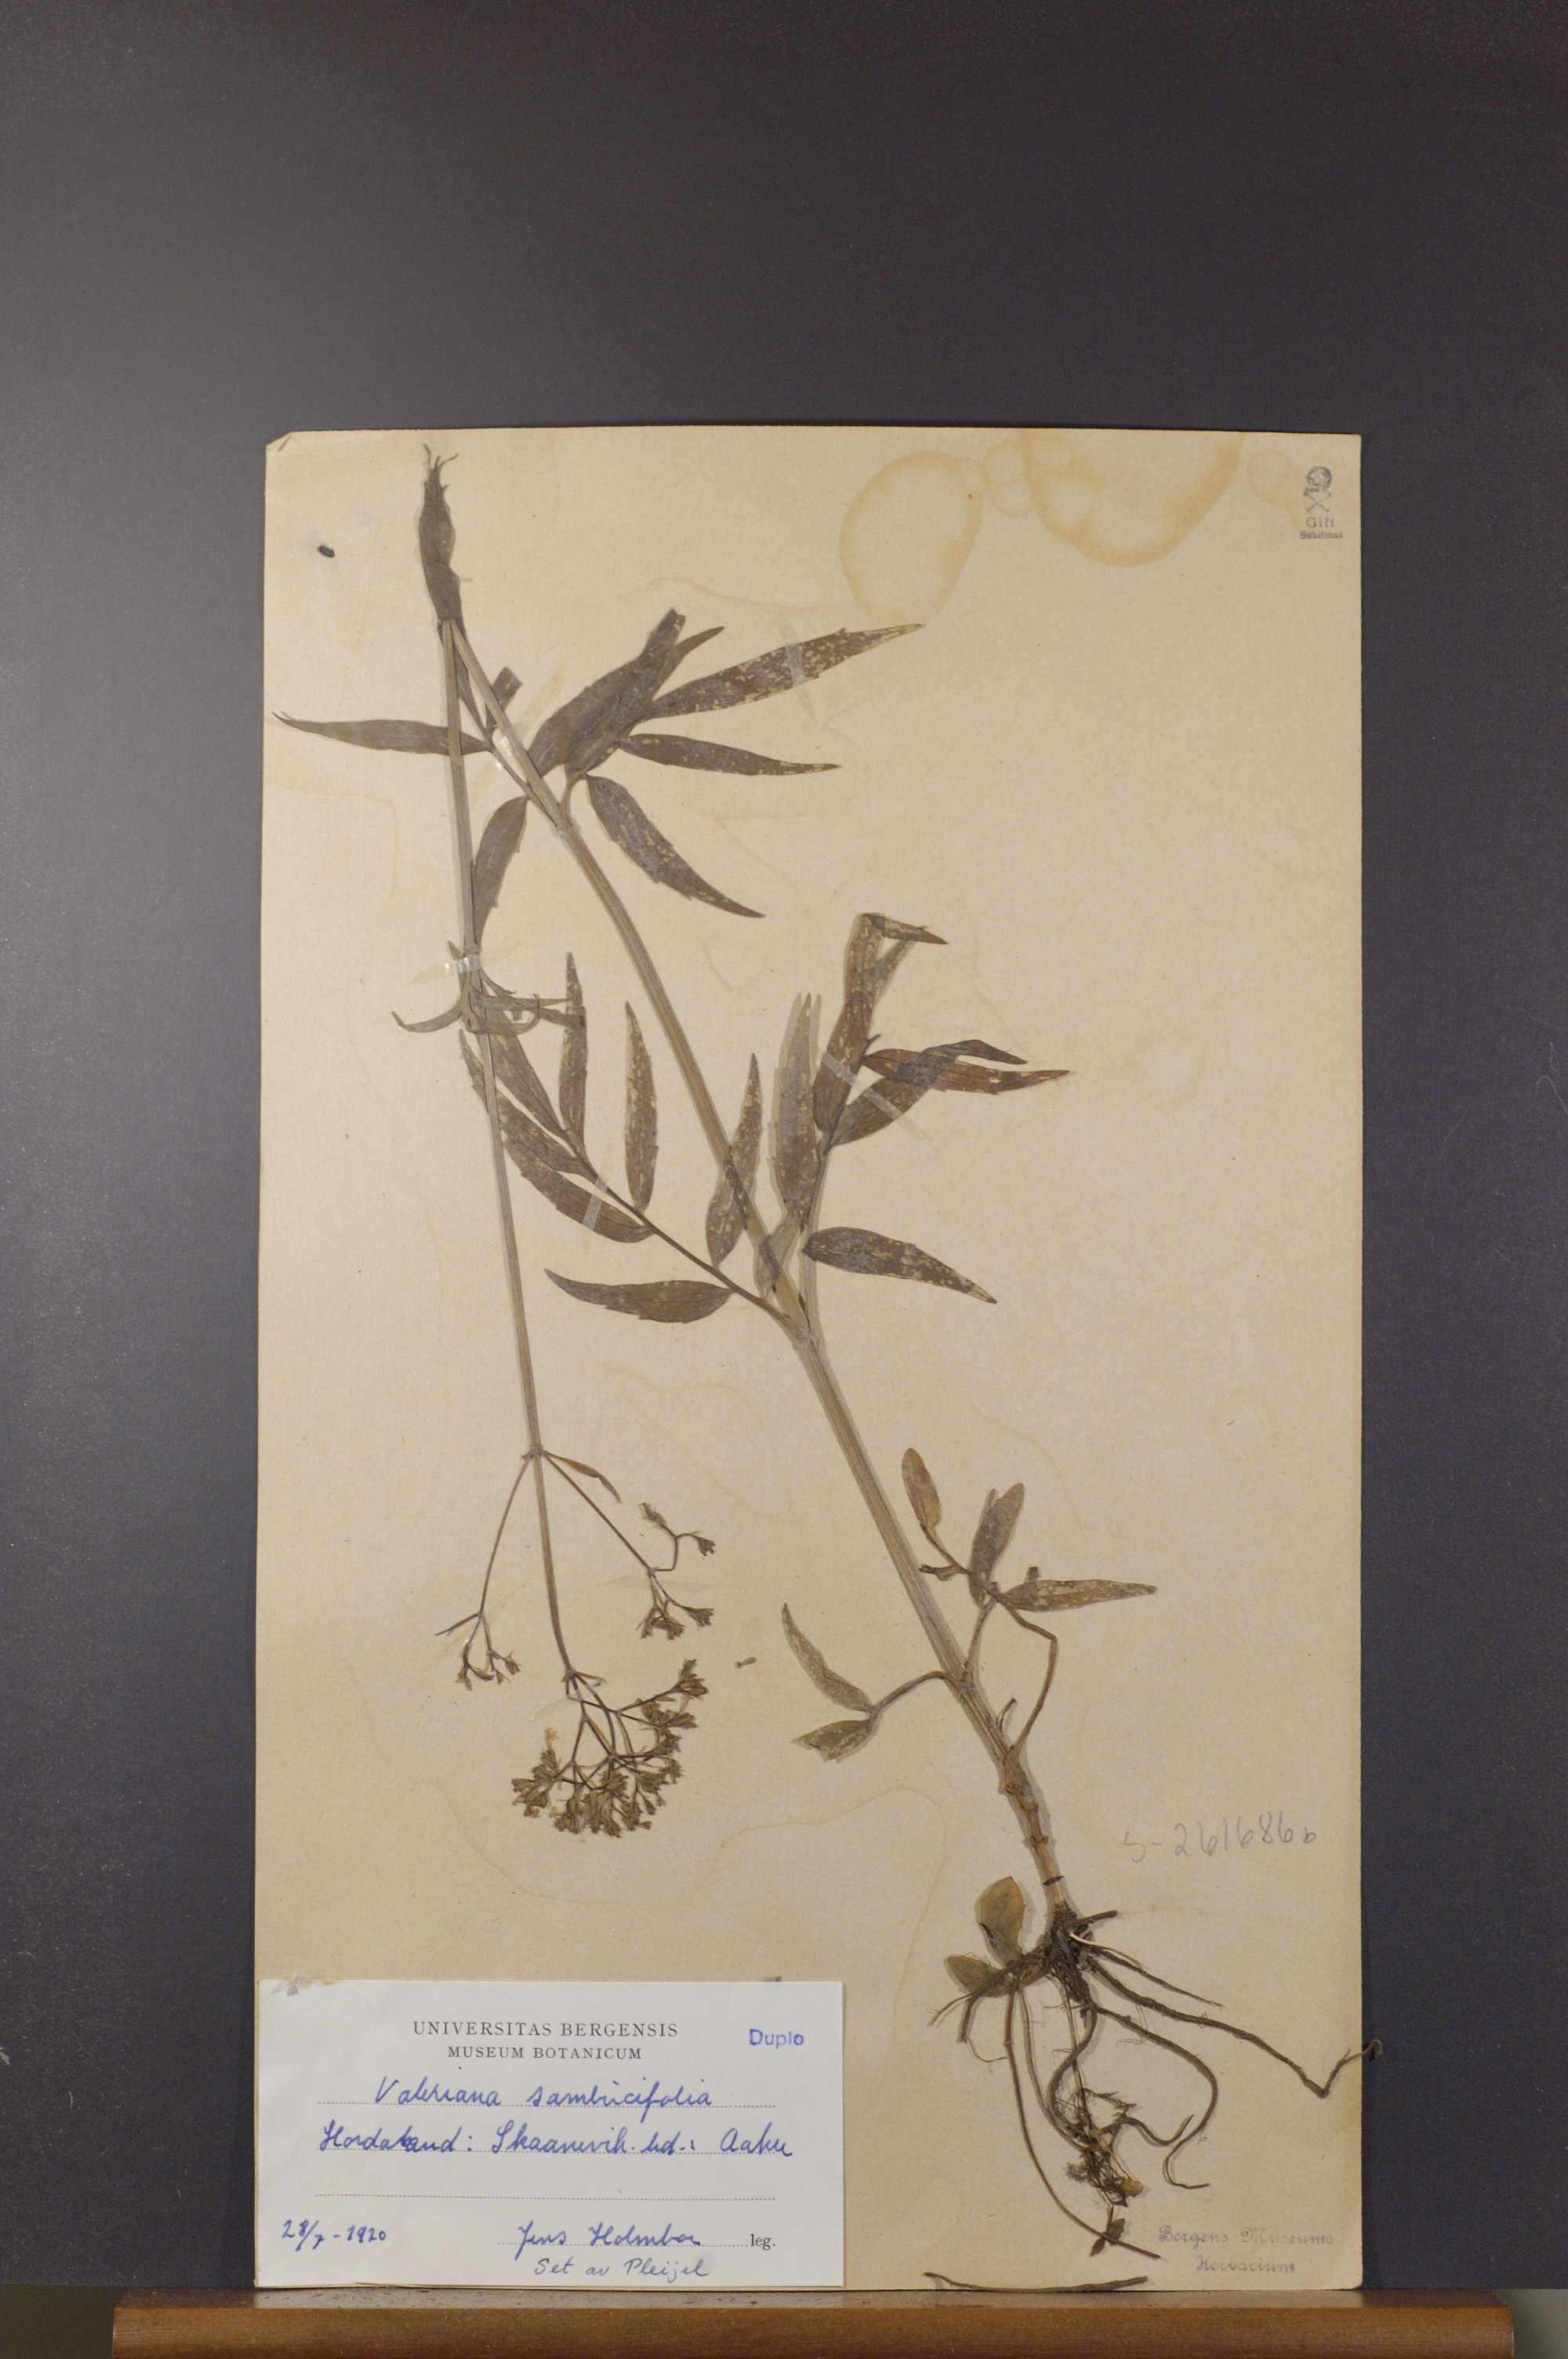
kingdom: Plantae
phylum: Tracheophyta
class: Magnoliopsida
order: Dipsacales
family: Caprifoliaceae
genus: Valeriana
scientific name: Valeriana excelsa
